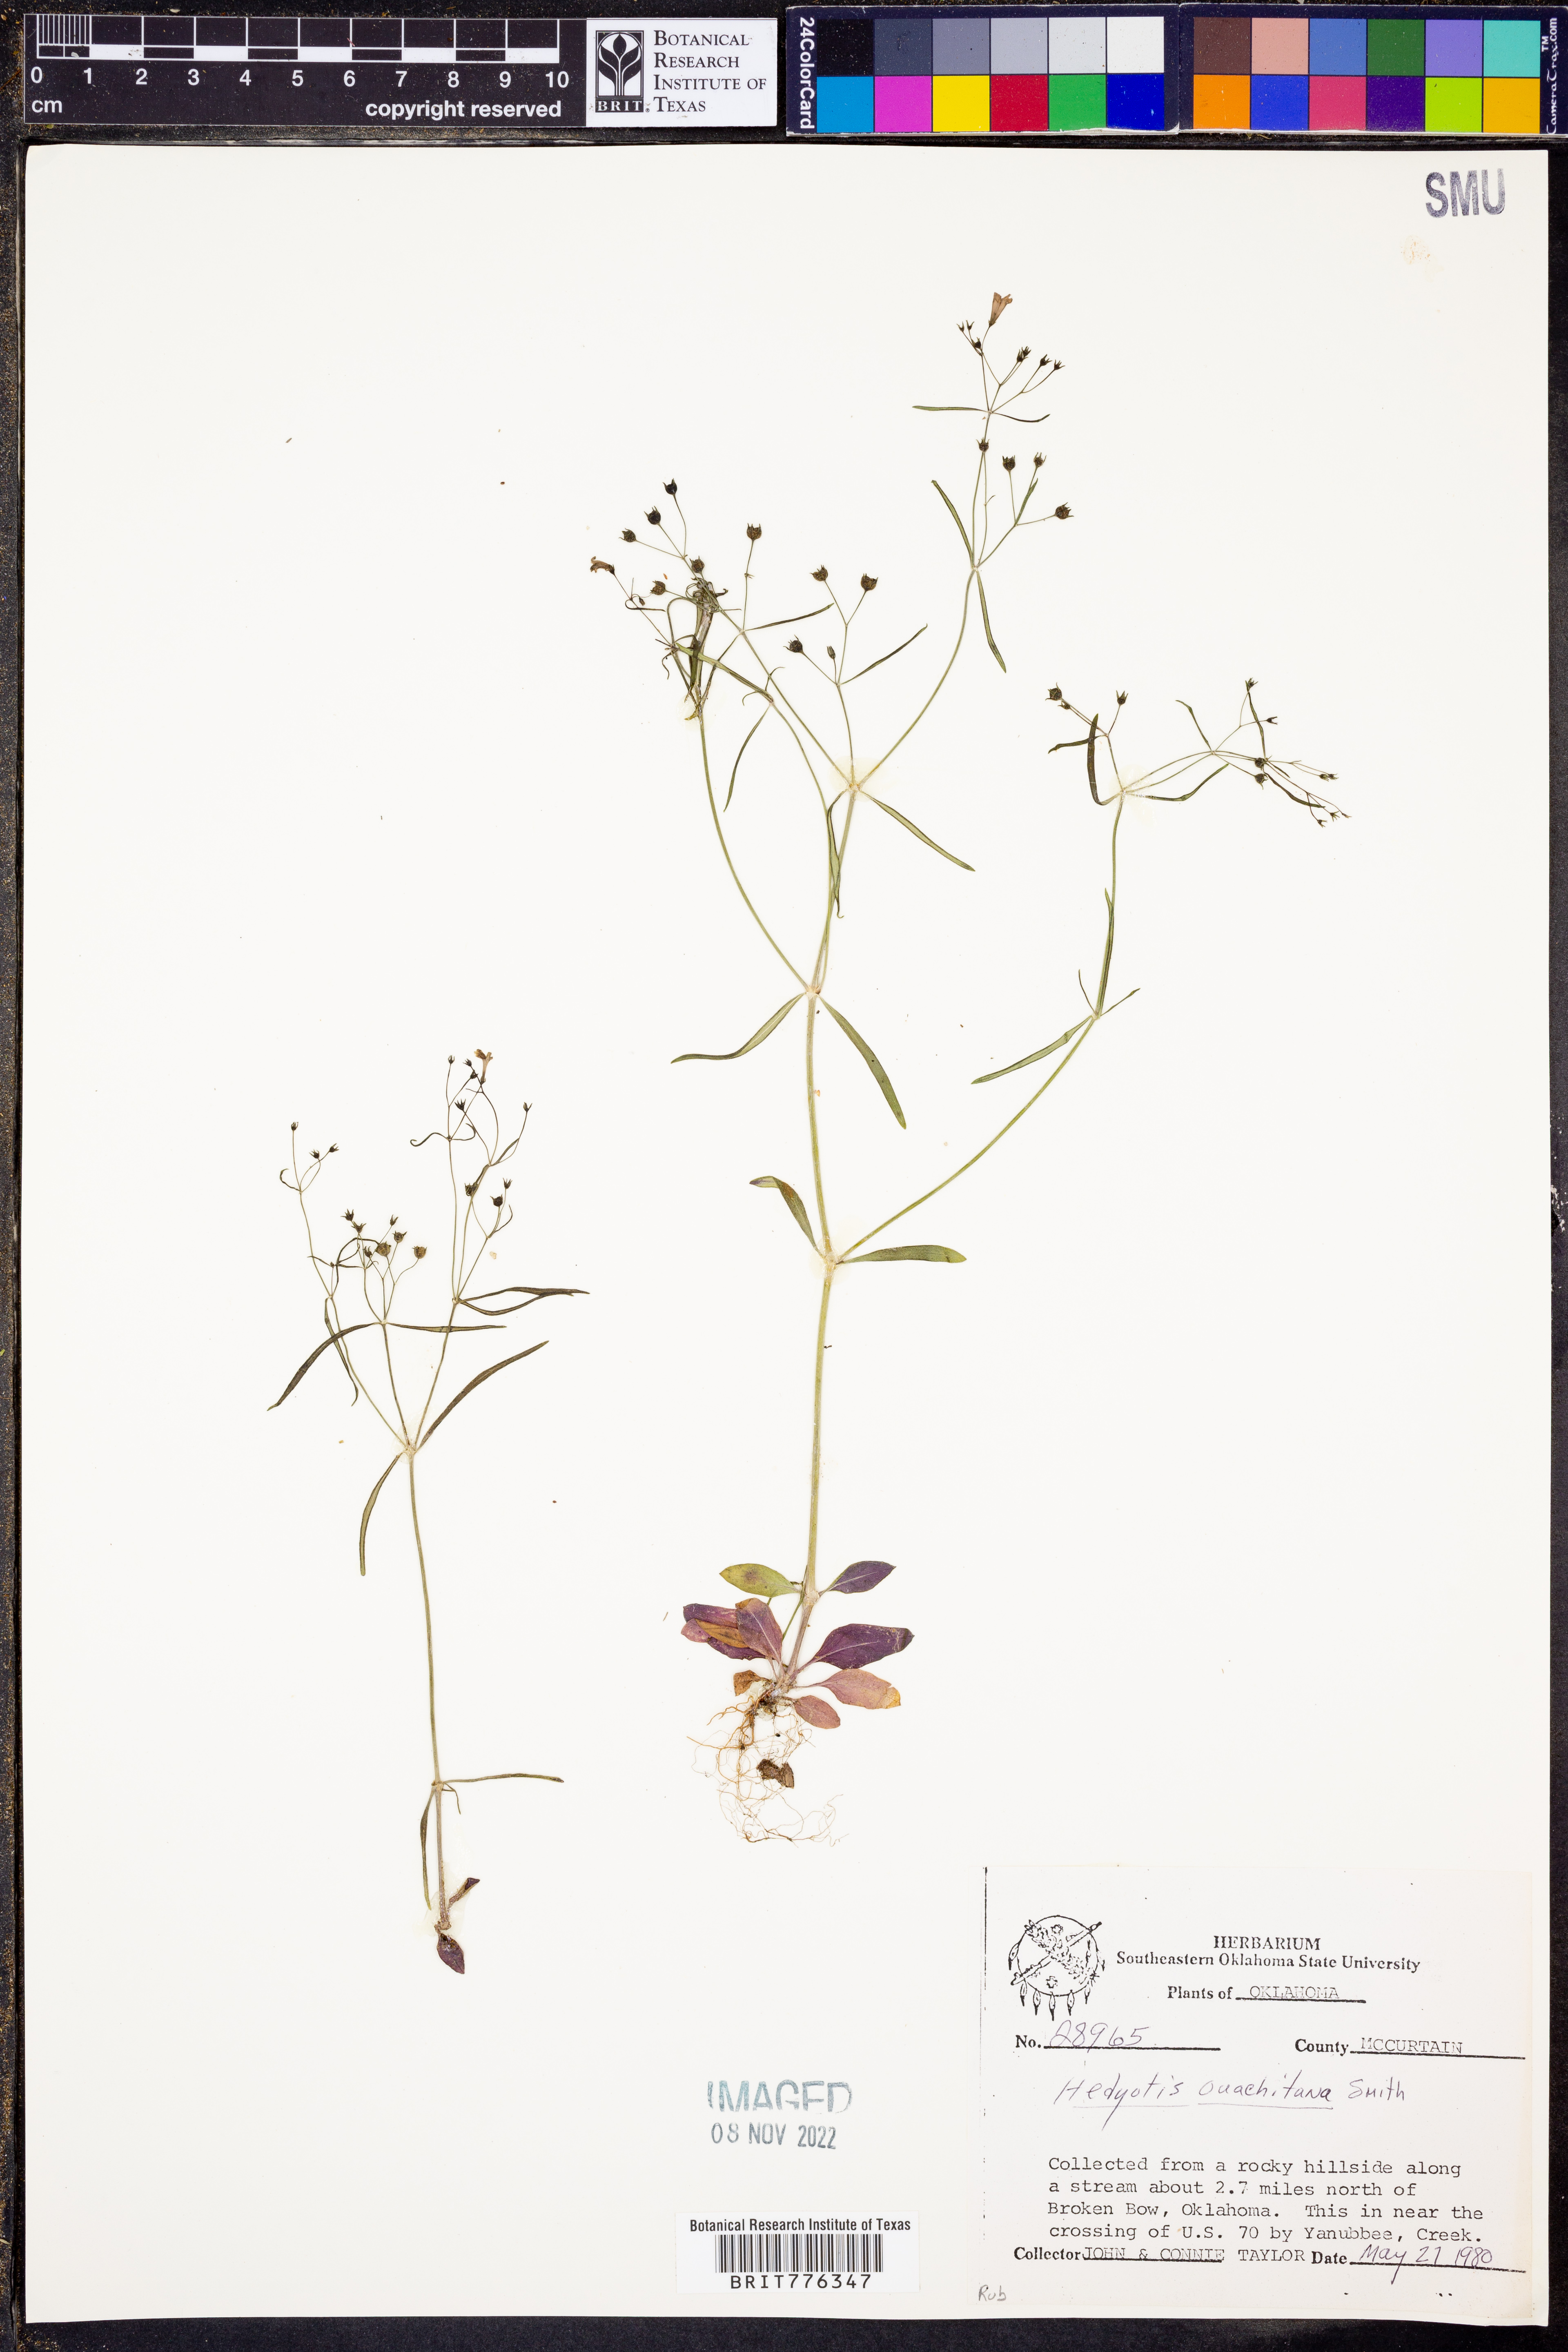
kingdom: Plantae
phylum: Tracheophyta
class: Magnoliopsida
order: Gentianales
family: Rubiaceae
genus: Houstonia
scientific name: Houstonia ouachitana
